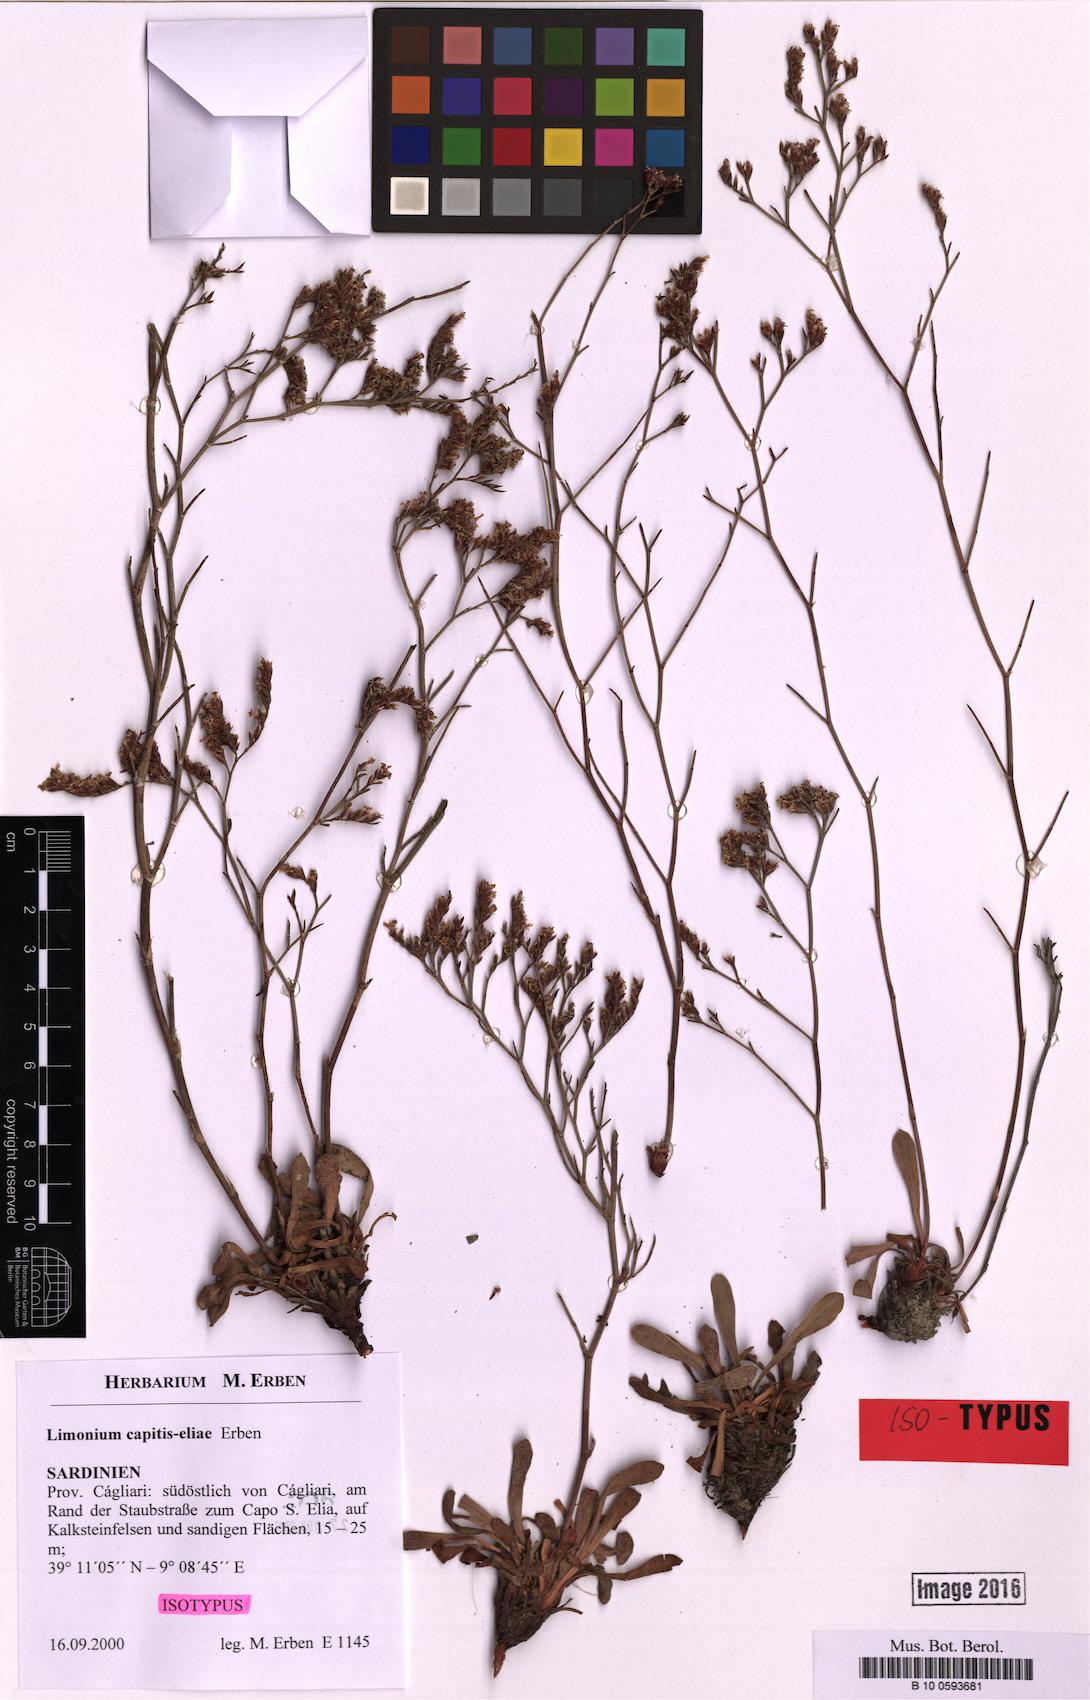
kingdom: Plantae
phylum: Tracheophyta
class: Magnoliopsida
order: Caryophyllales
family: Plumbaginaceae
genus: Limonium
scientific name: Limonium capitis-eliae
